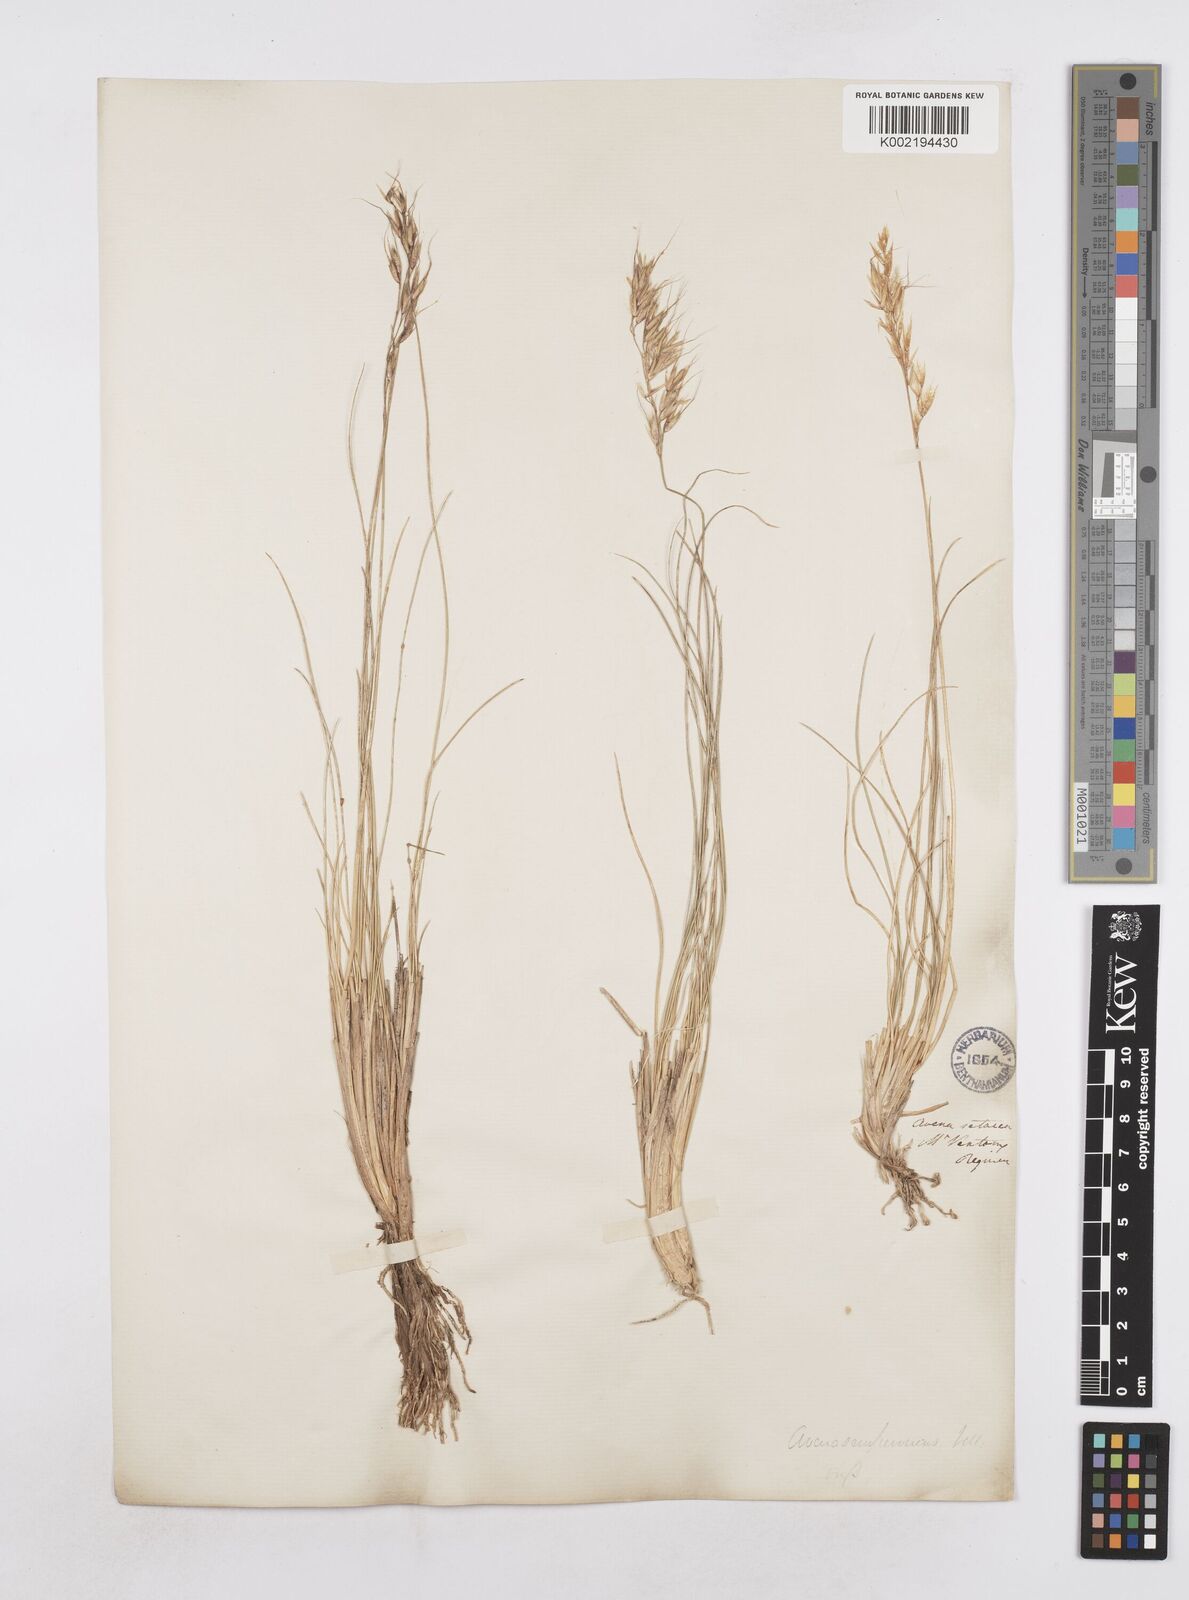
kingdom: Plantae
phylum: Tracheophyta
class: Liliopsida
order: Poales
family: Poaceae
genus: Helictotrichon
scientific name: Helictotrichon sempervirens
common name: Blue oat-grass
